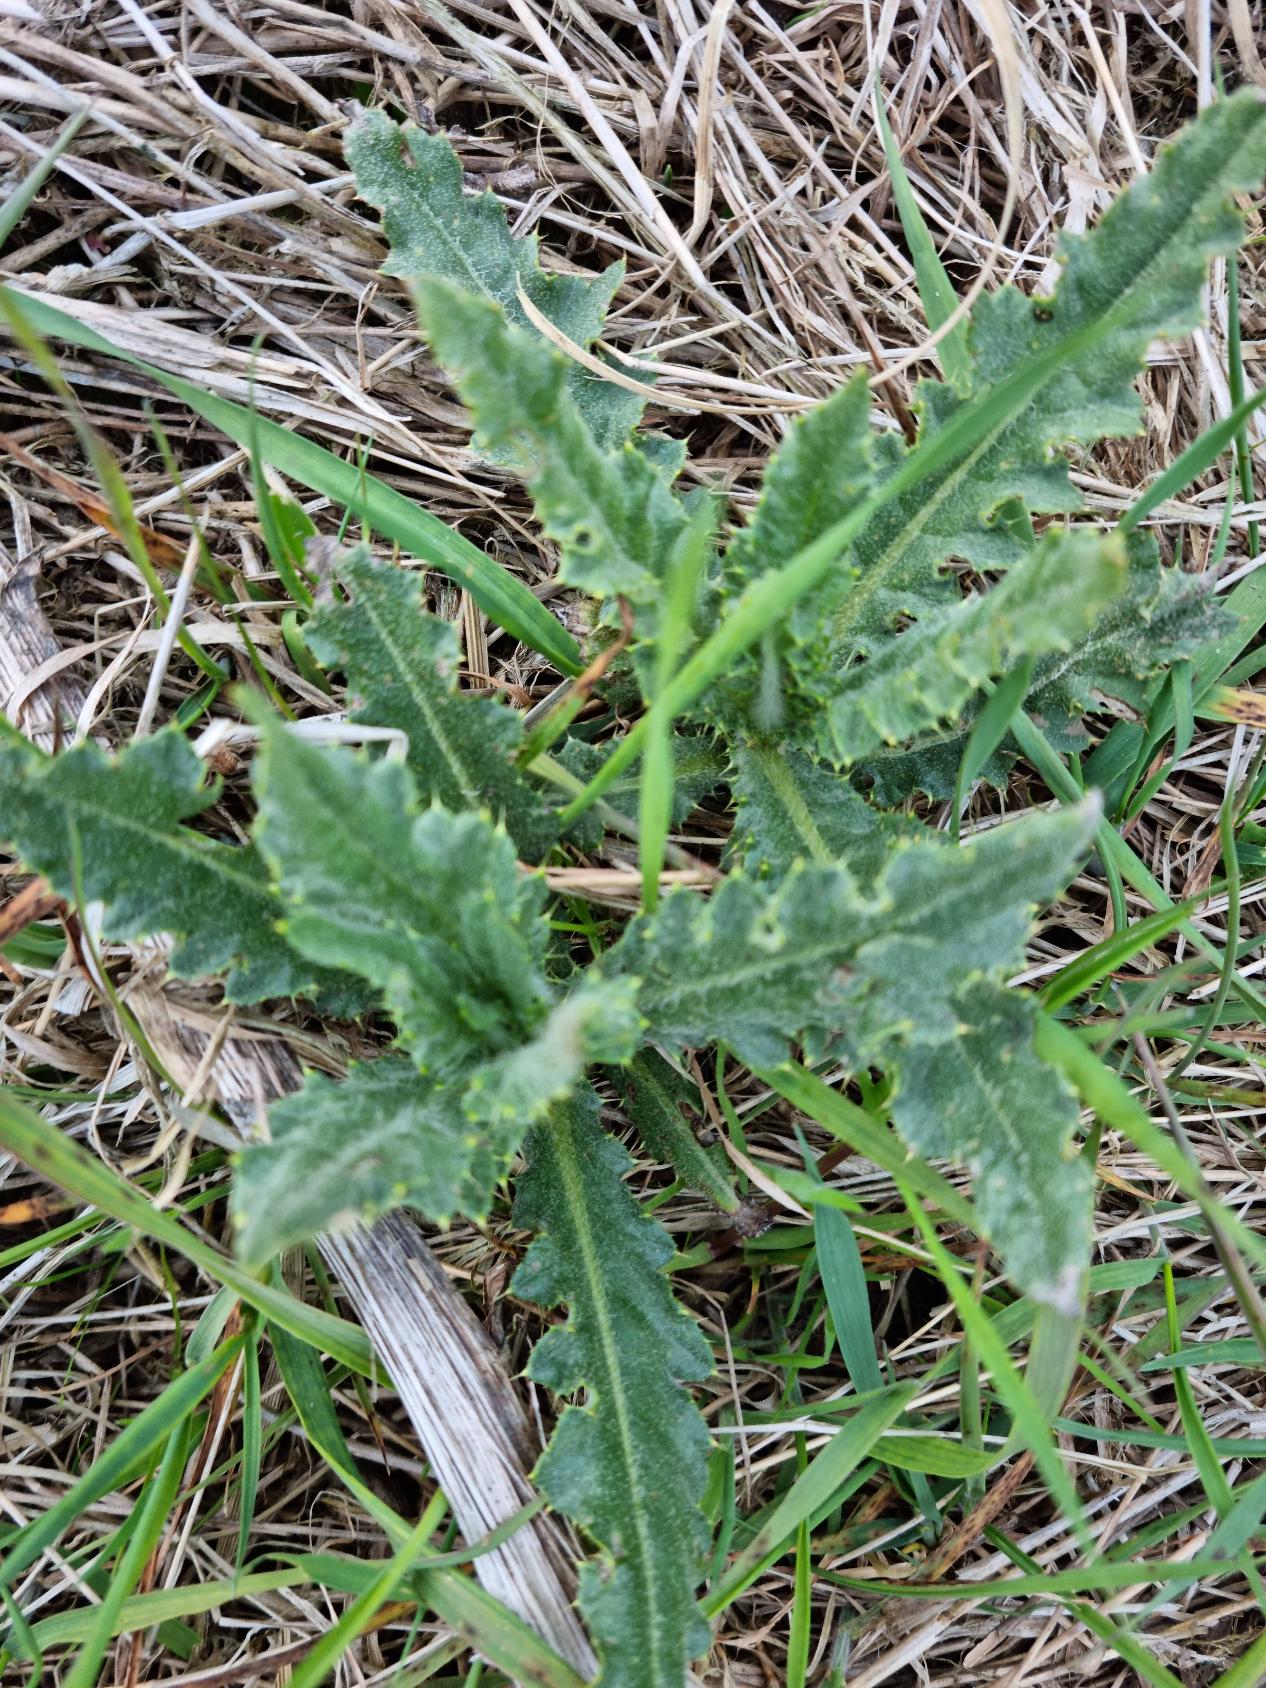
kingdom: Plantae
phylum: Tracheophyta
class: Magnoliopsida
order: Asterales
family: Asteraceae
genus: Cirsium
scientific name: Cirsium arvense
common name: Ager-tidsel
